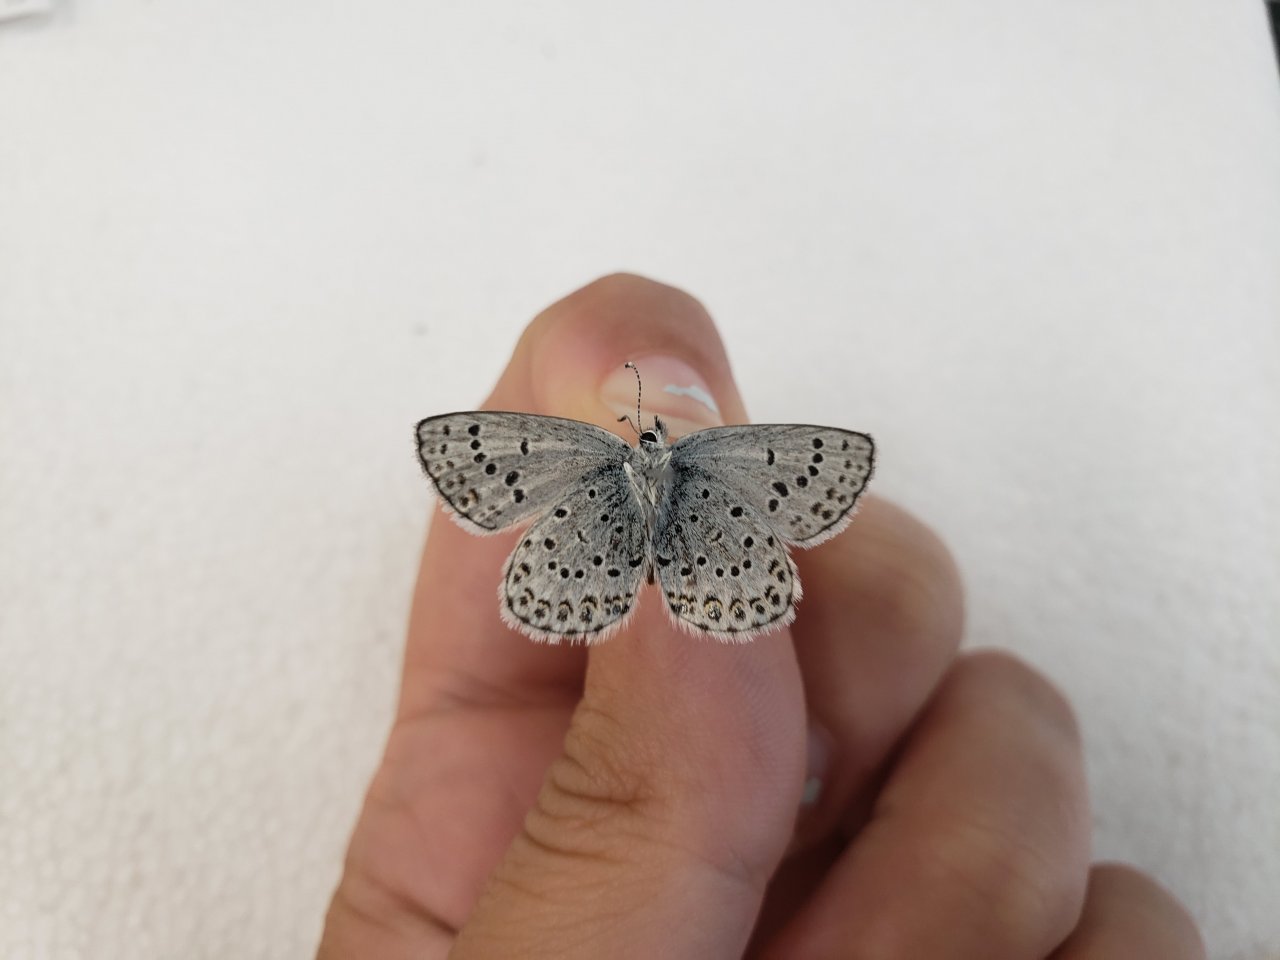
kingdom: Animalia
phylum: Arthropoda
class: Insecta
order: Lepidoptera
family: Lycaenidae
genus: Lycaeides
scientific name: Lycaeides idas
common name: Northern Blue
